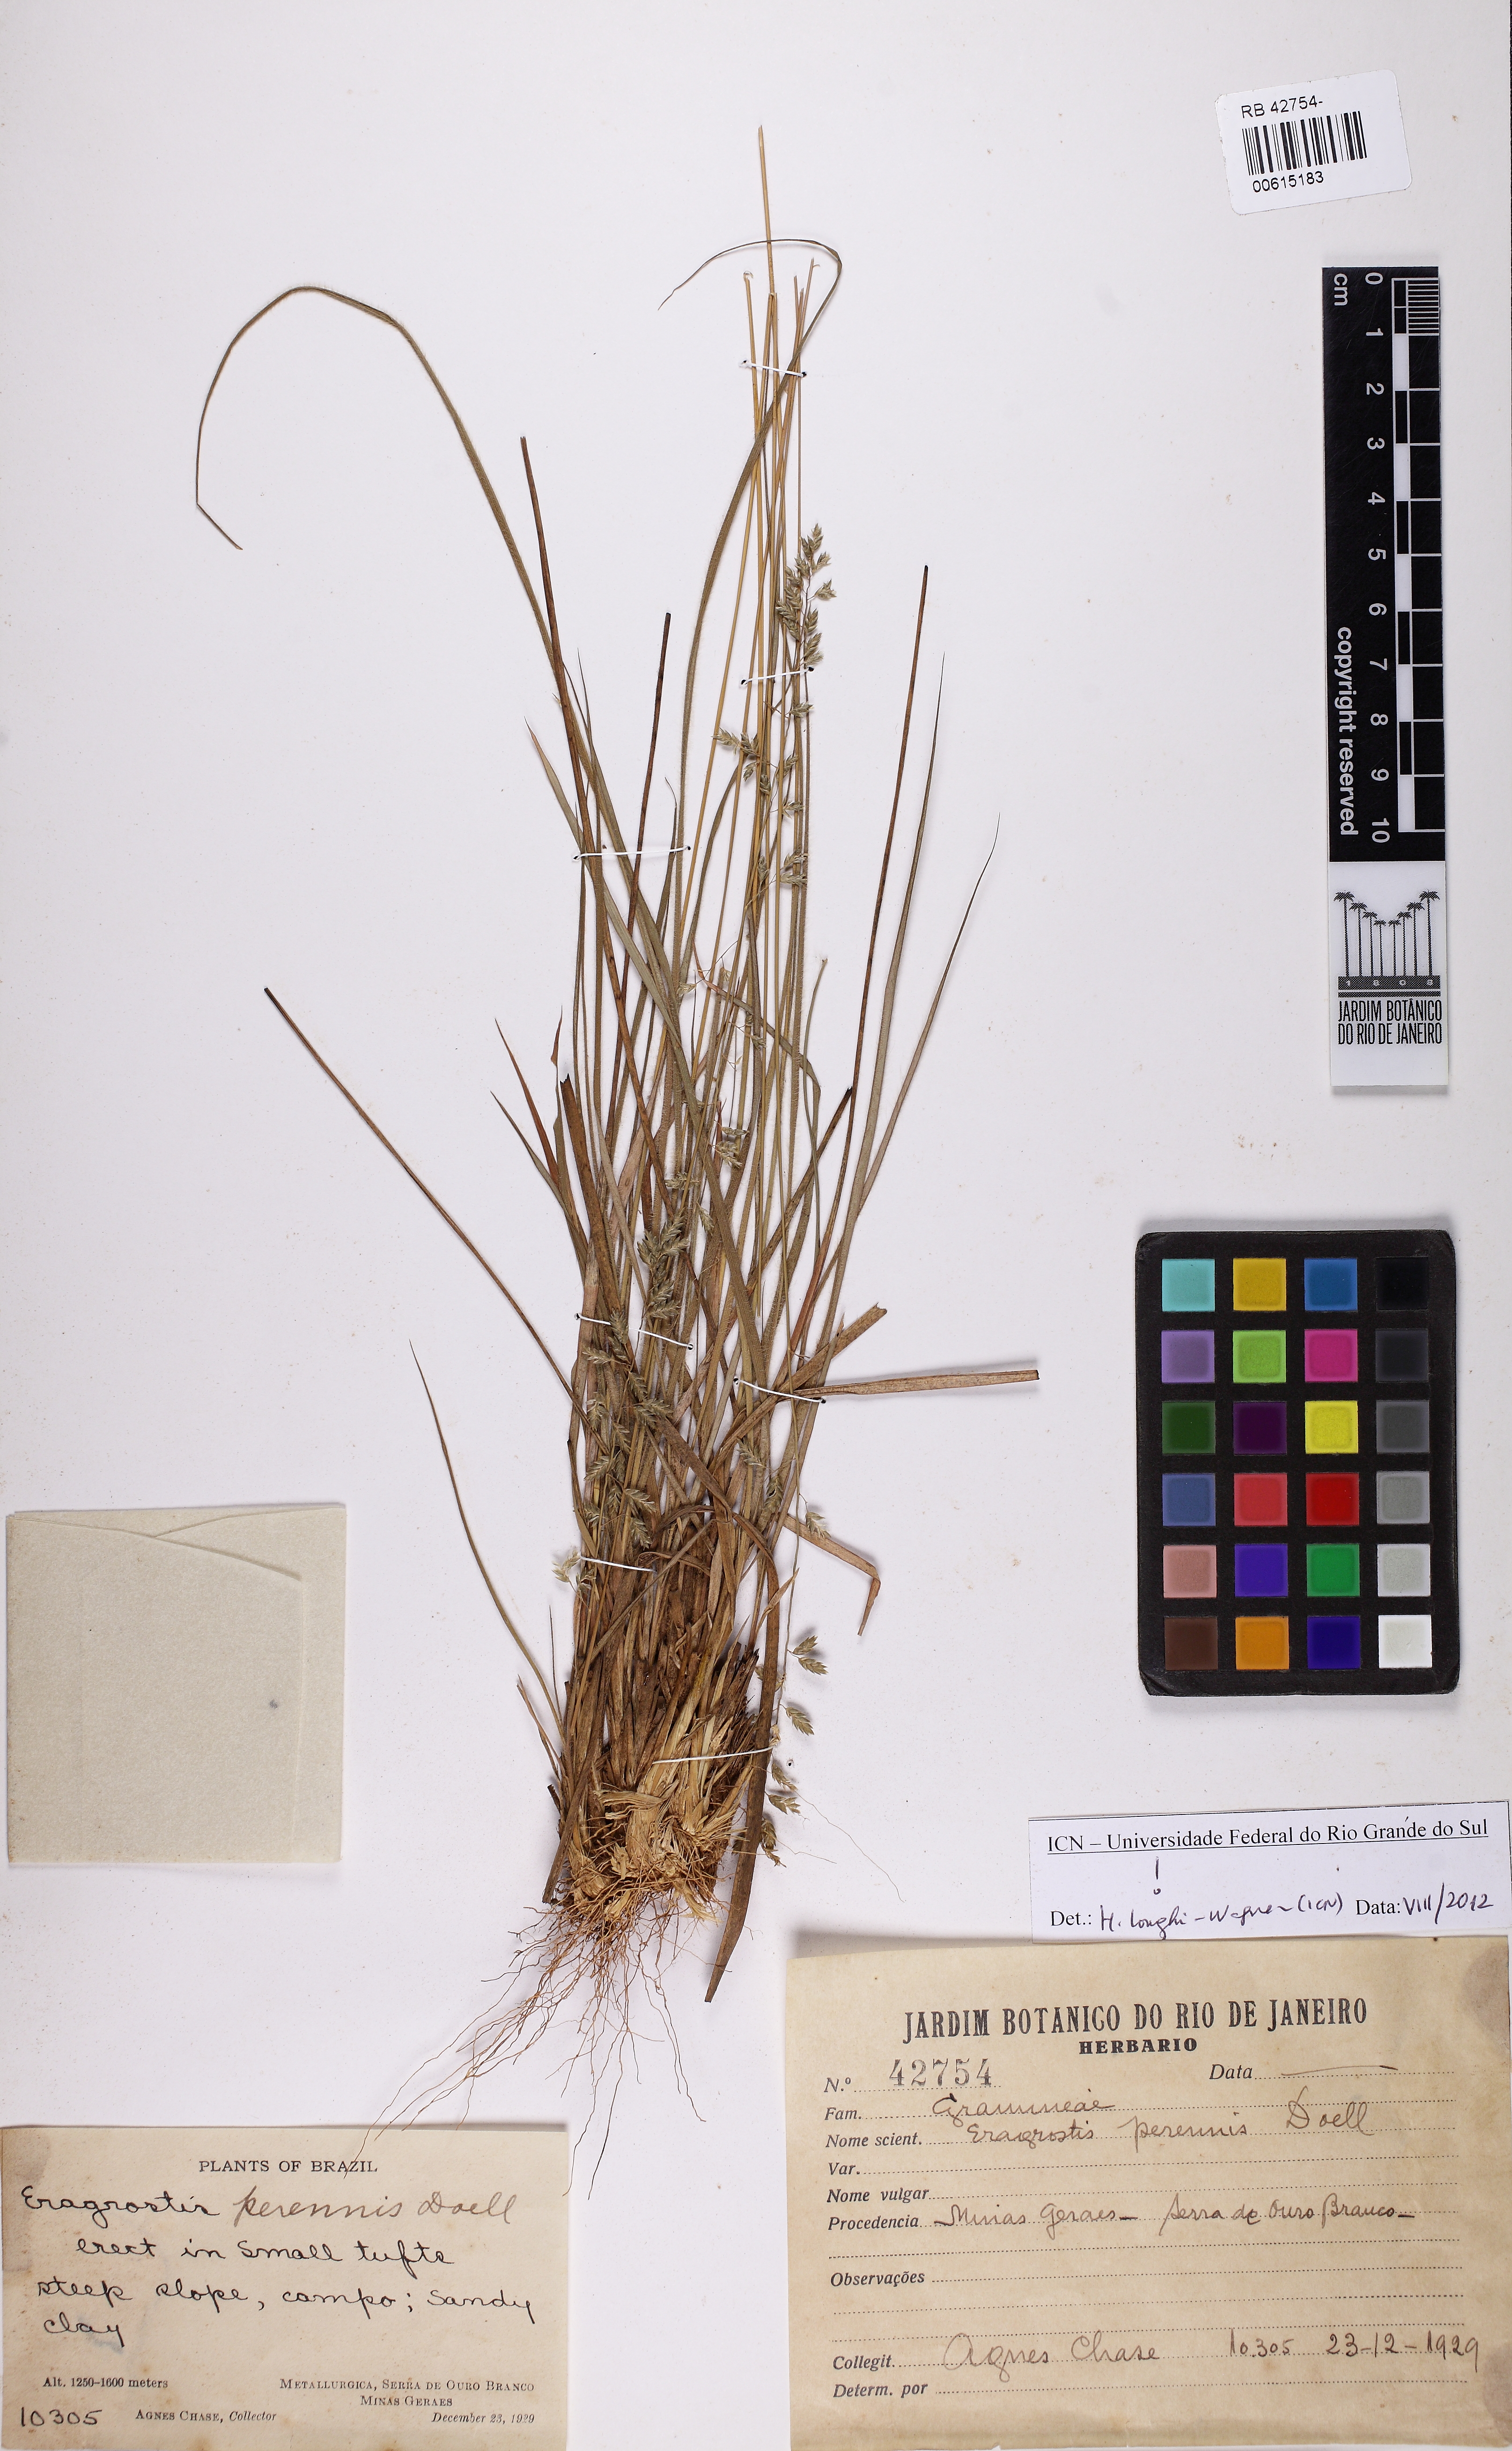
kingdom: Plantae
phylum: Tracheophyta
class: Liliopsida
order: Poales
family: Poaceae
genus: Eragrostis
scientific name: Eragrostis perennis
